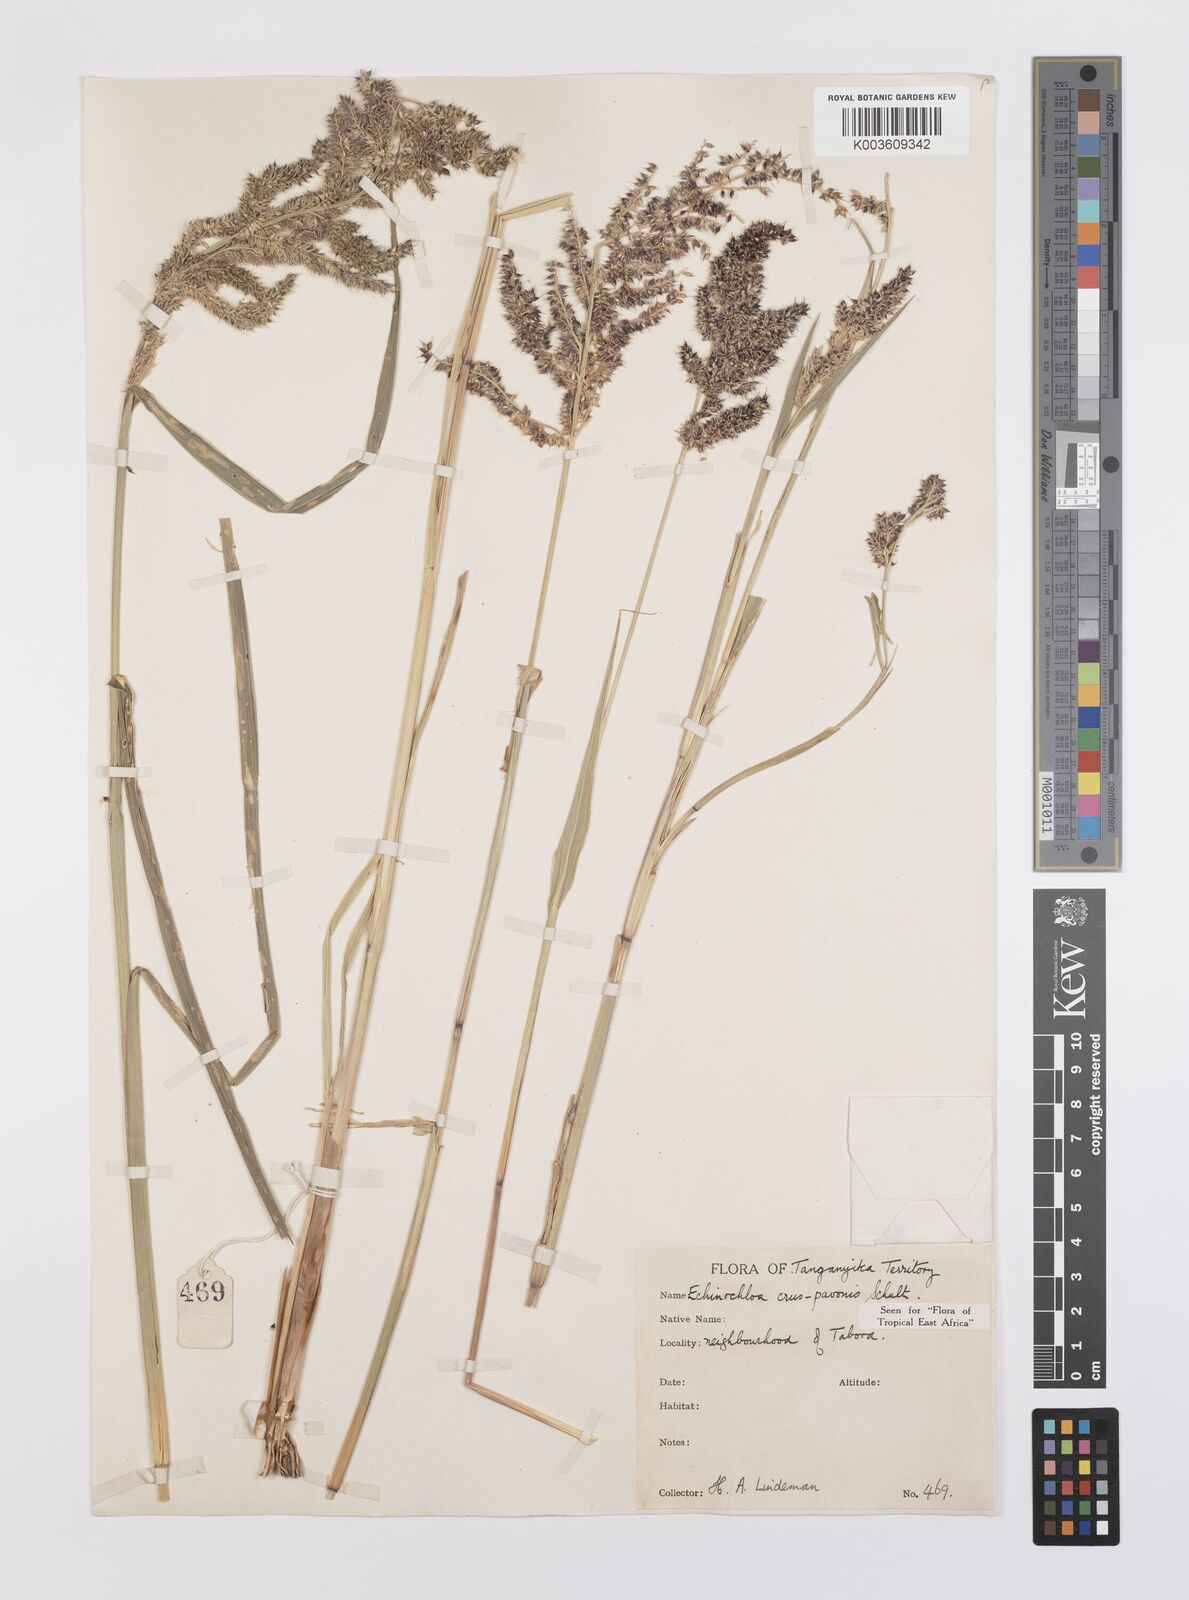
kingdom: Plantae
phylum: Tracheophyta
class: Liliopsida
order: Poales
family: Poaceae
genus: Echinochloa
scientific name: Echinochloa crus-pavonis
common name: Gulf cockspur grass
